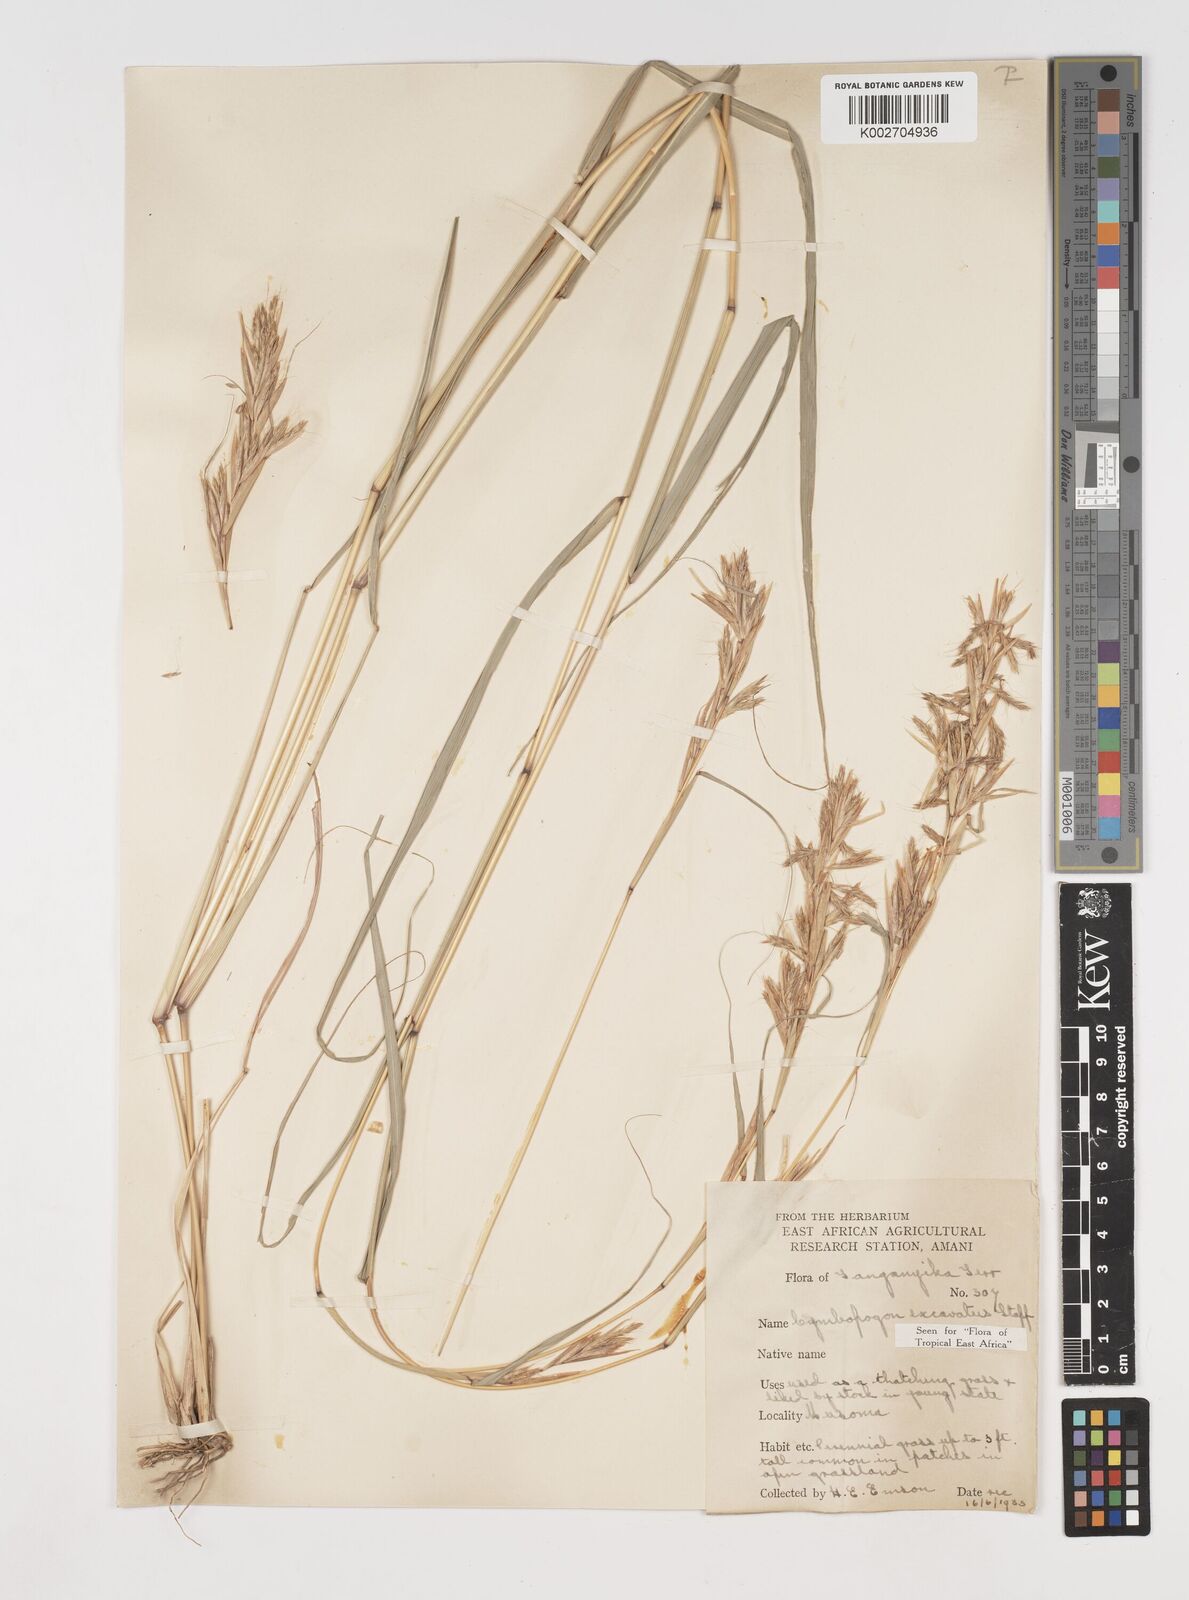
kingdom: Plantae
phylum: Tracheophyta
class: Liliopsida
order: Poales
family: Poaceae
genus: Cymbopogon
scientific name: Cymbopogon caesius
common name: Kachi grass
